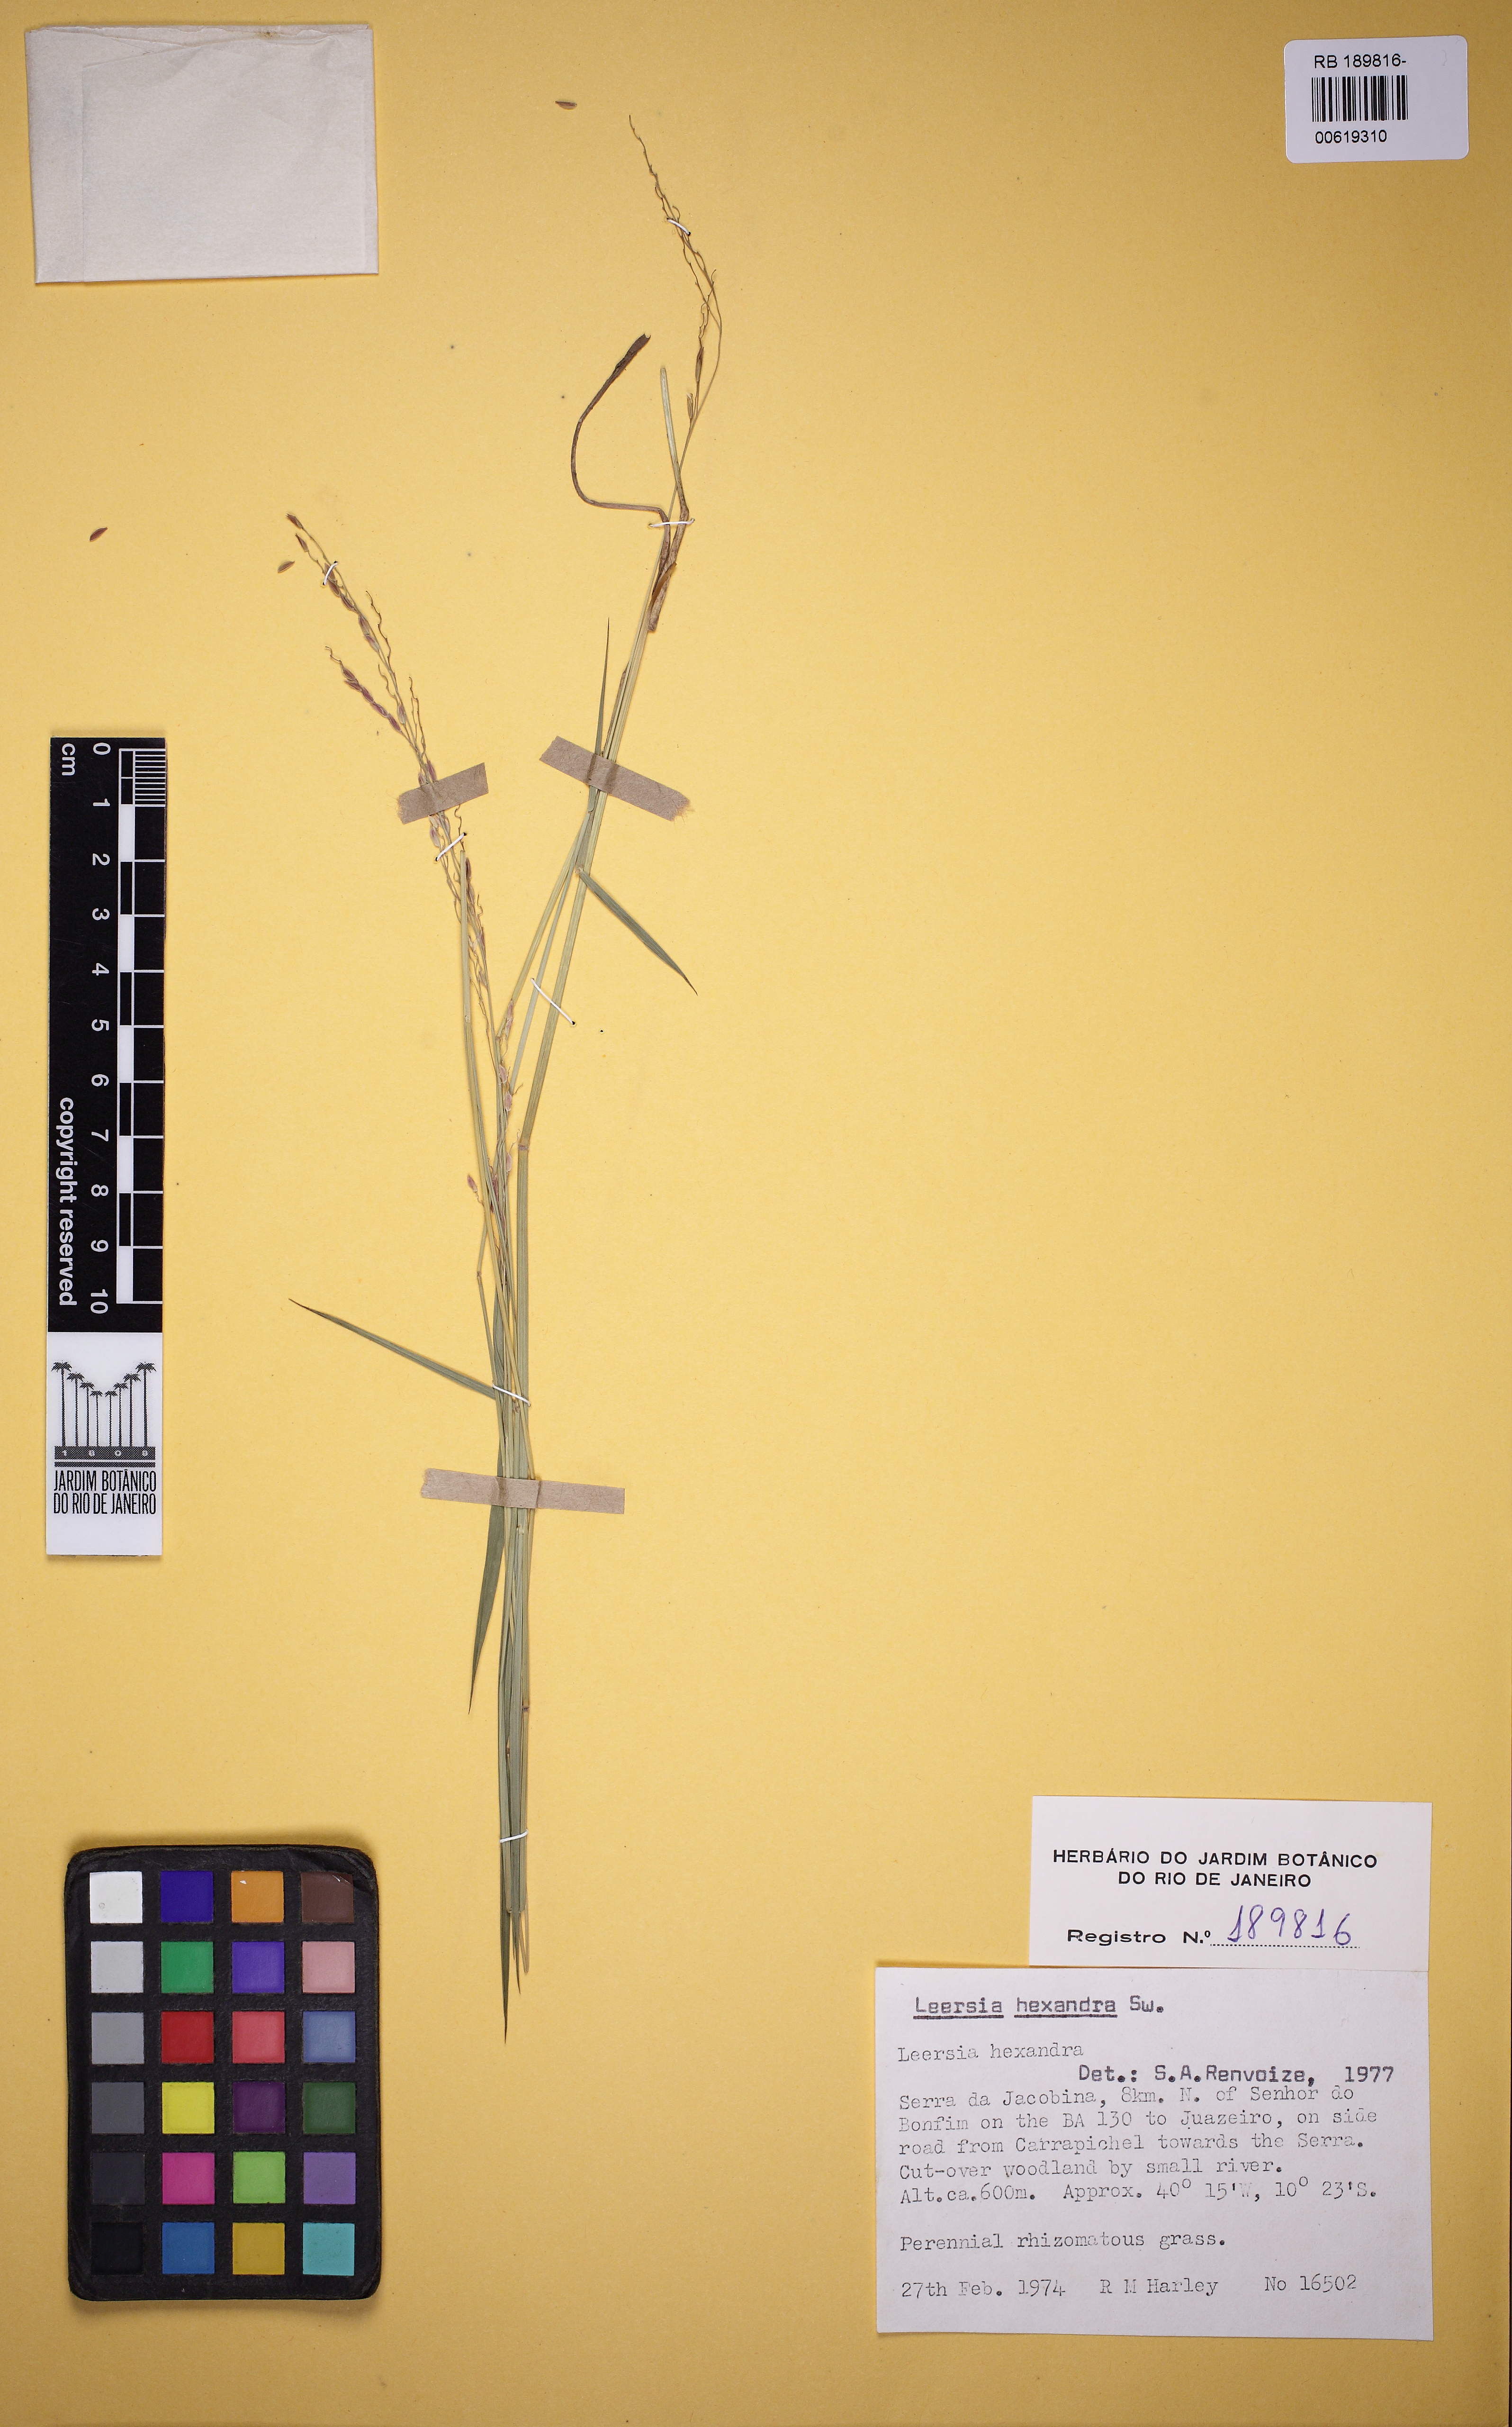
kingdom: Plantae
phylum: Tracheophyta
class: Liliopsida
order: Poales
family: Poaceae
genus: Leersia
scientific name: Leersia hexandra
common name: Southern cut grass
